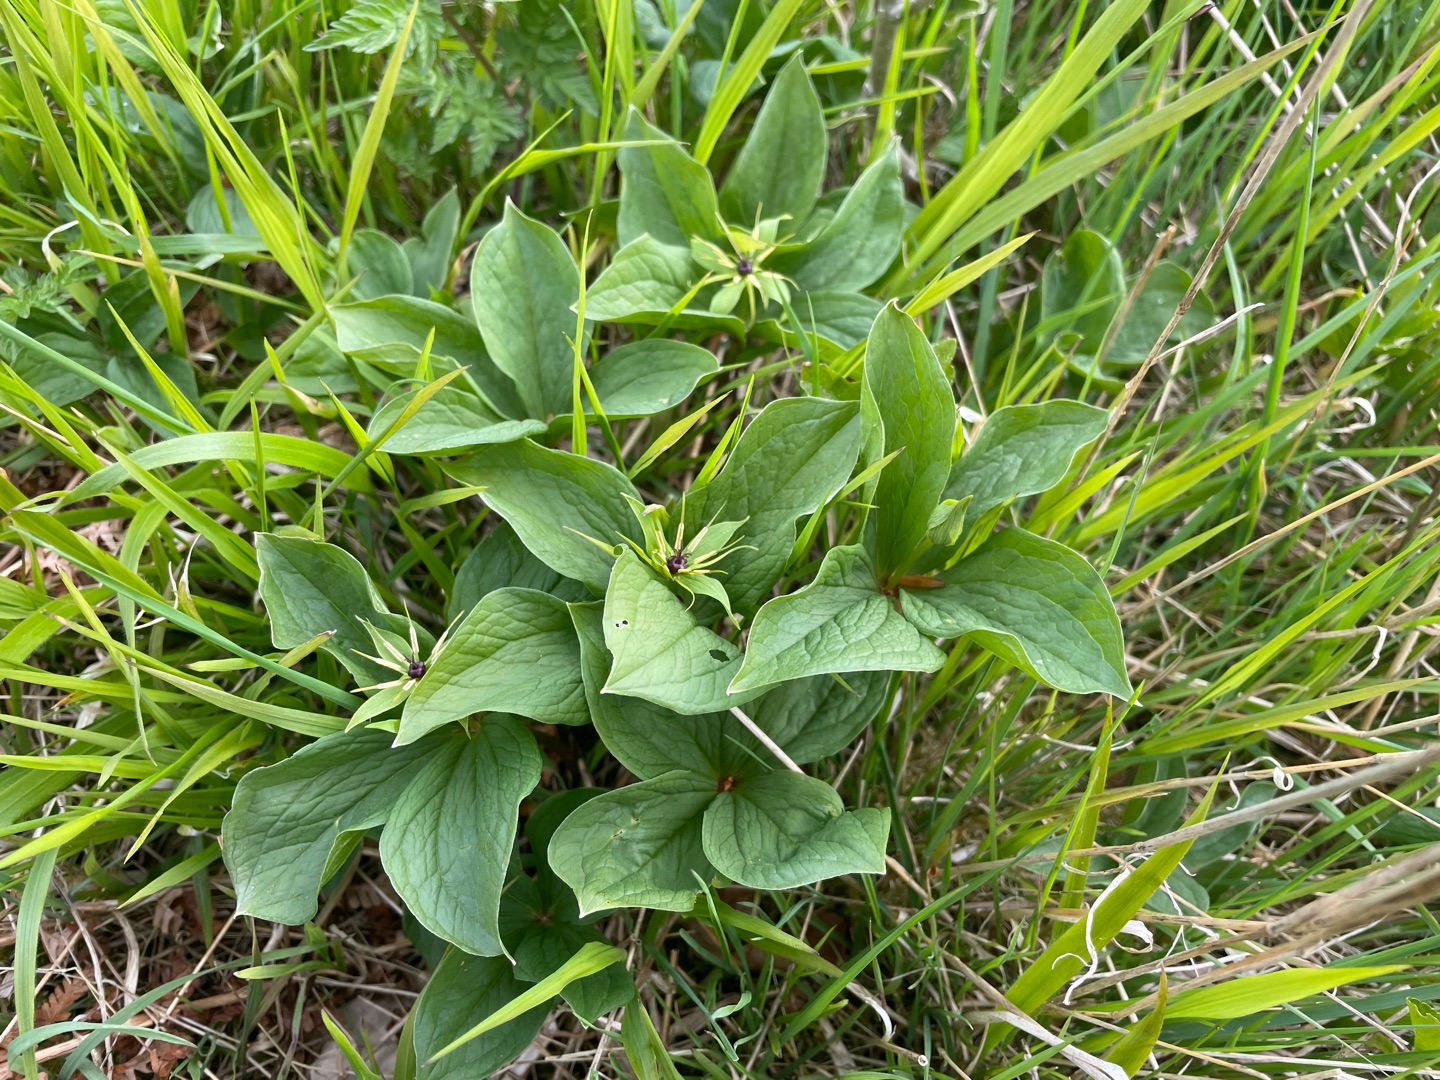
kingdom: Plantae
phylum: Tracheophyta
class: Liliopsida
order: Liliales
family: Melanthiaceae
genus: Paris
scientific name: Paris quadrifolia
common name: Firblad
